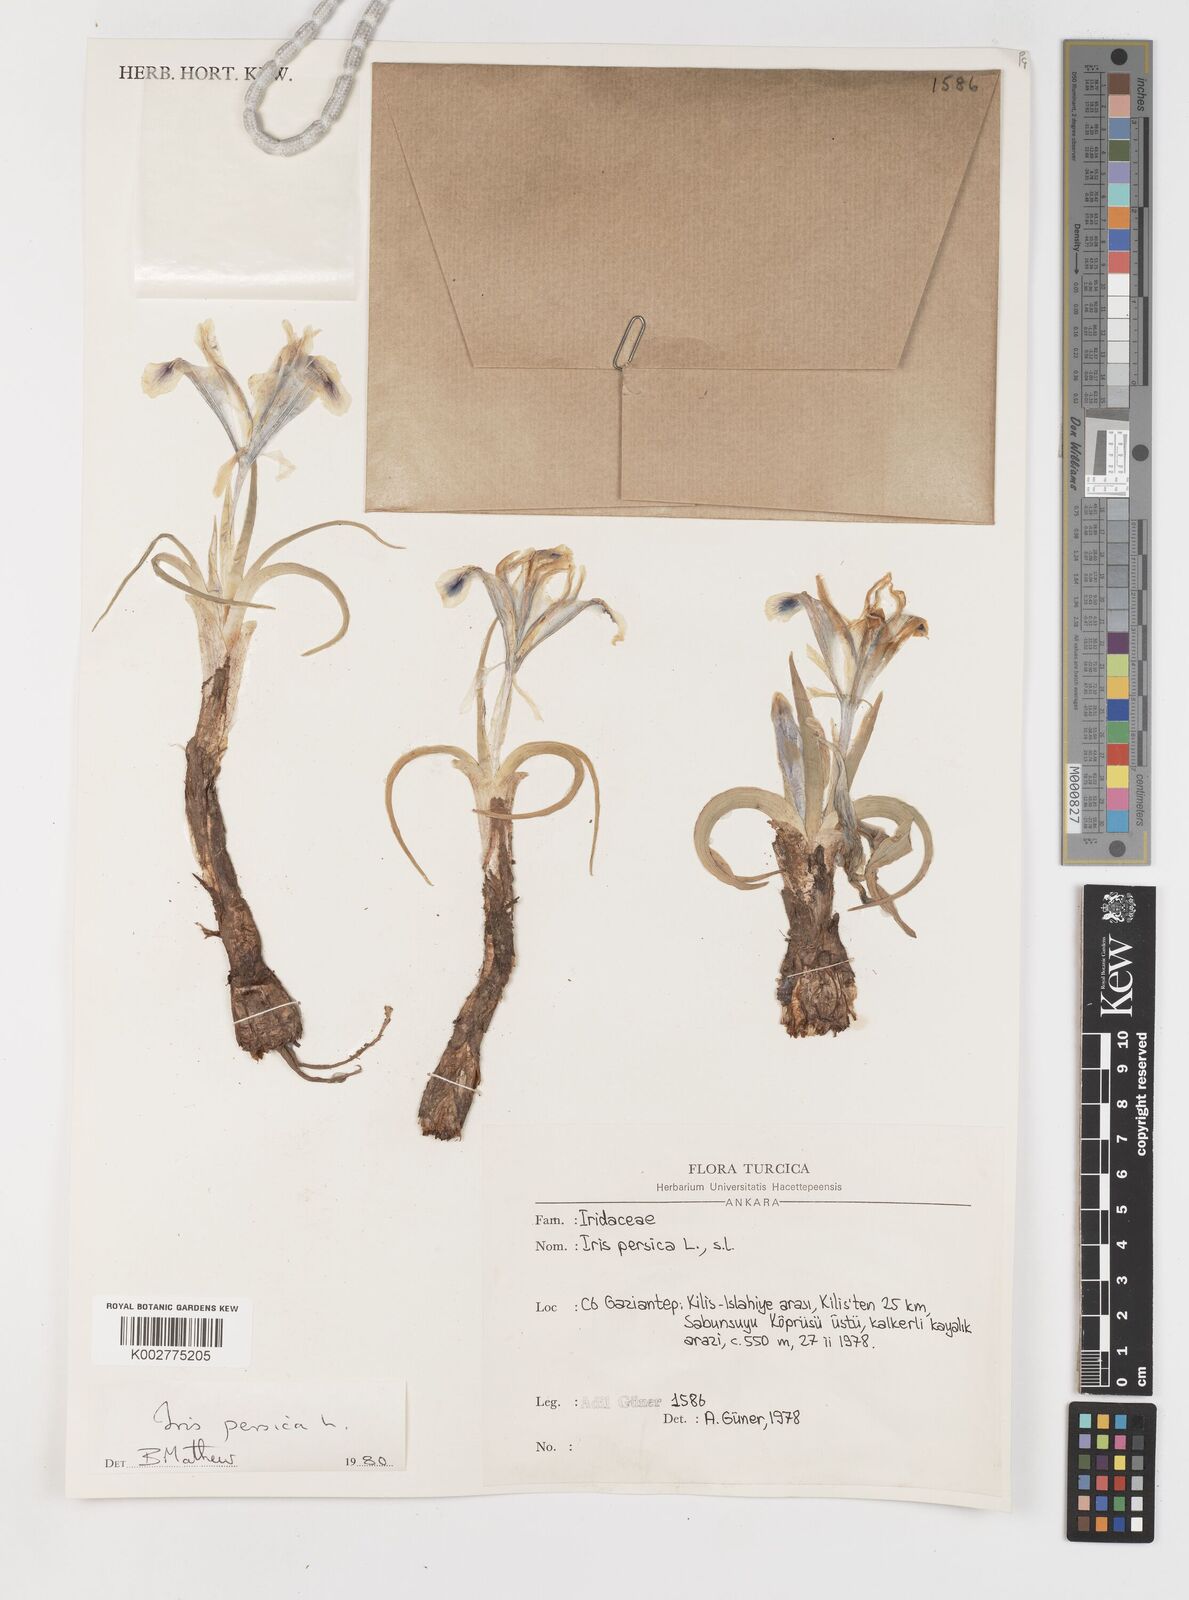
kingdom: Plantae
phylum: Tracheophyta
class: Liliopsida
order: Asparagales
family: Iridaceae
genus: Iris
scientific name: Iris persica
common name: Persian iris
